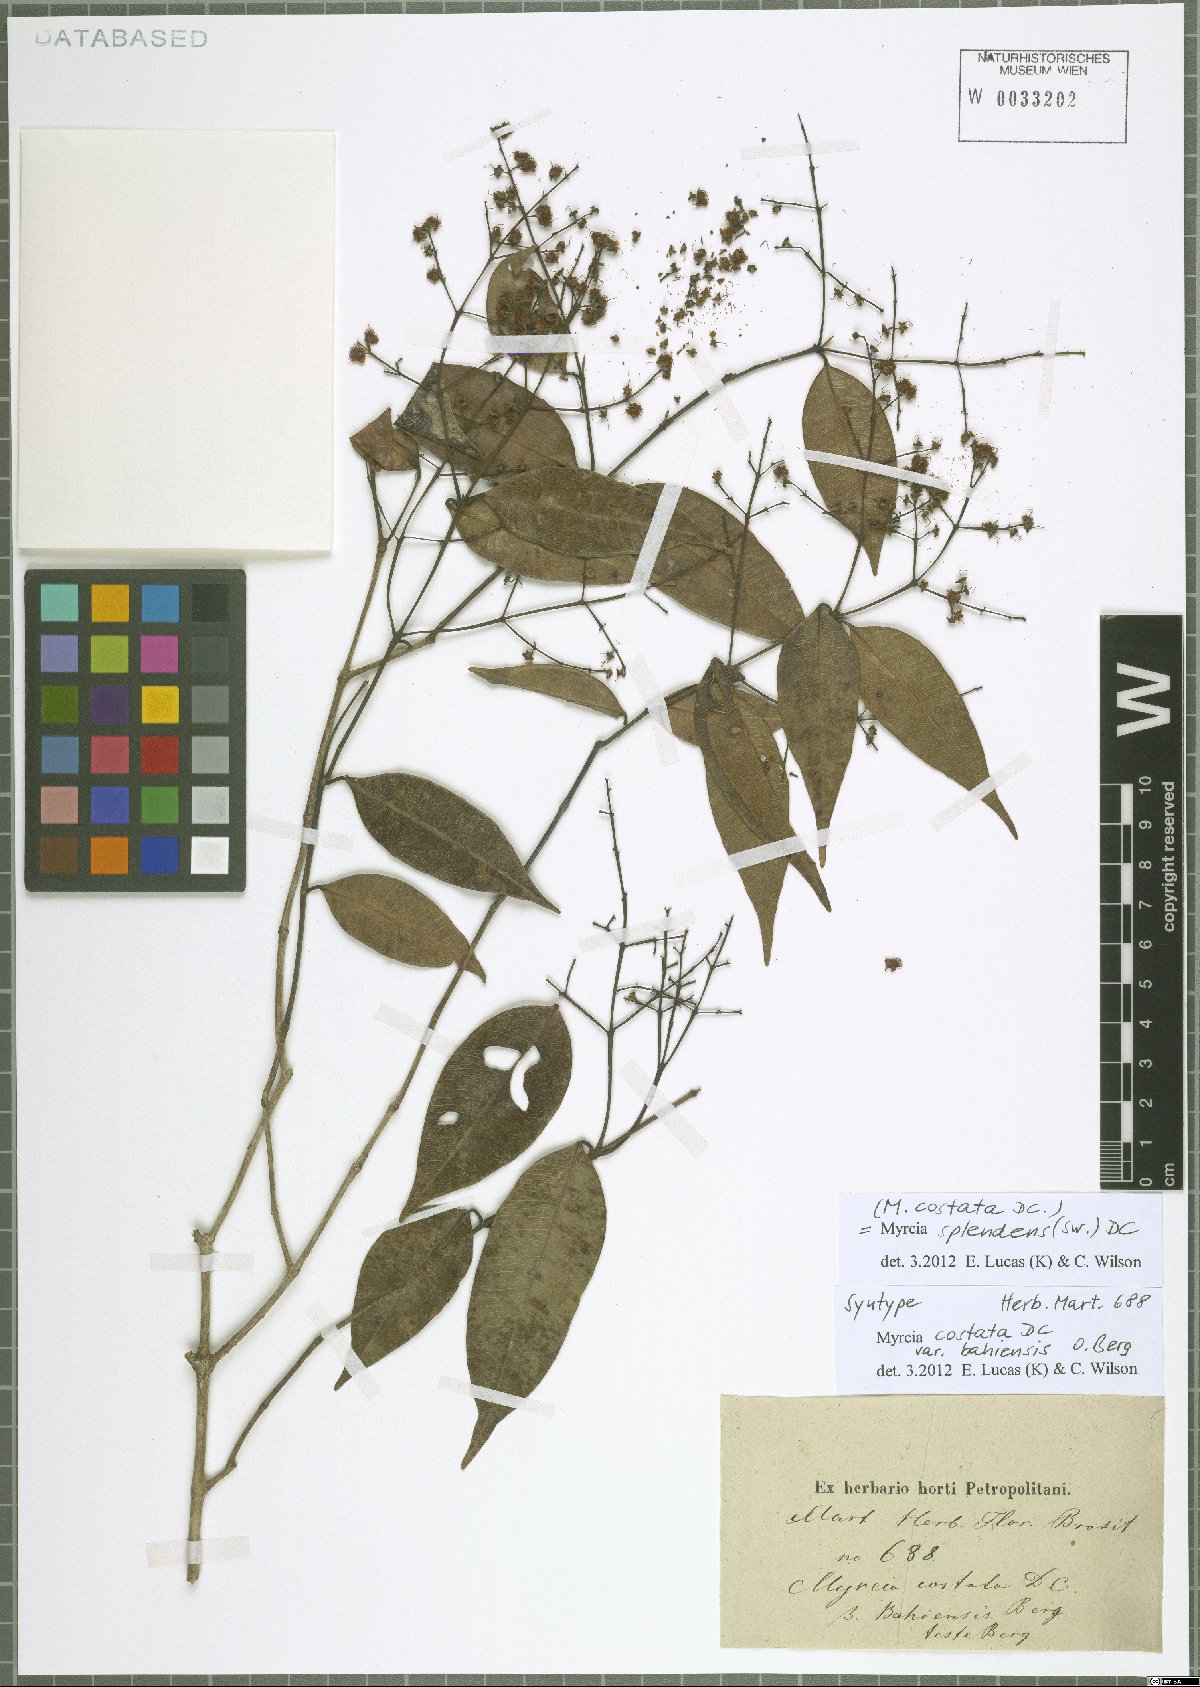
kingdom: Plantae
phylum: Tracheophyta
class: Magnoliopsida
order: Myrtales
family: Myrtaceae
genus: Myrcia
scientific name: Myrcia splendens
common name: Surinam cherry
